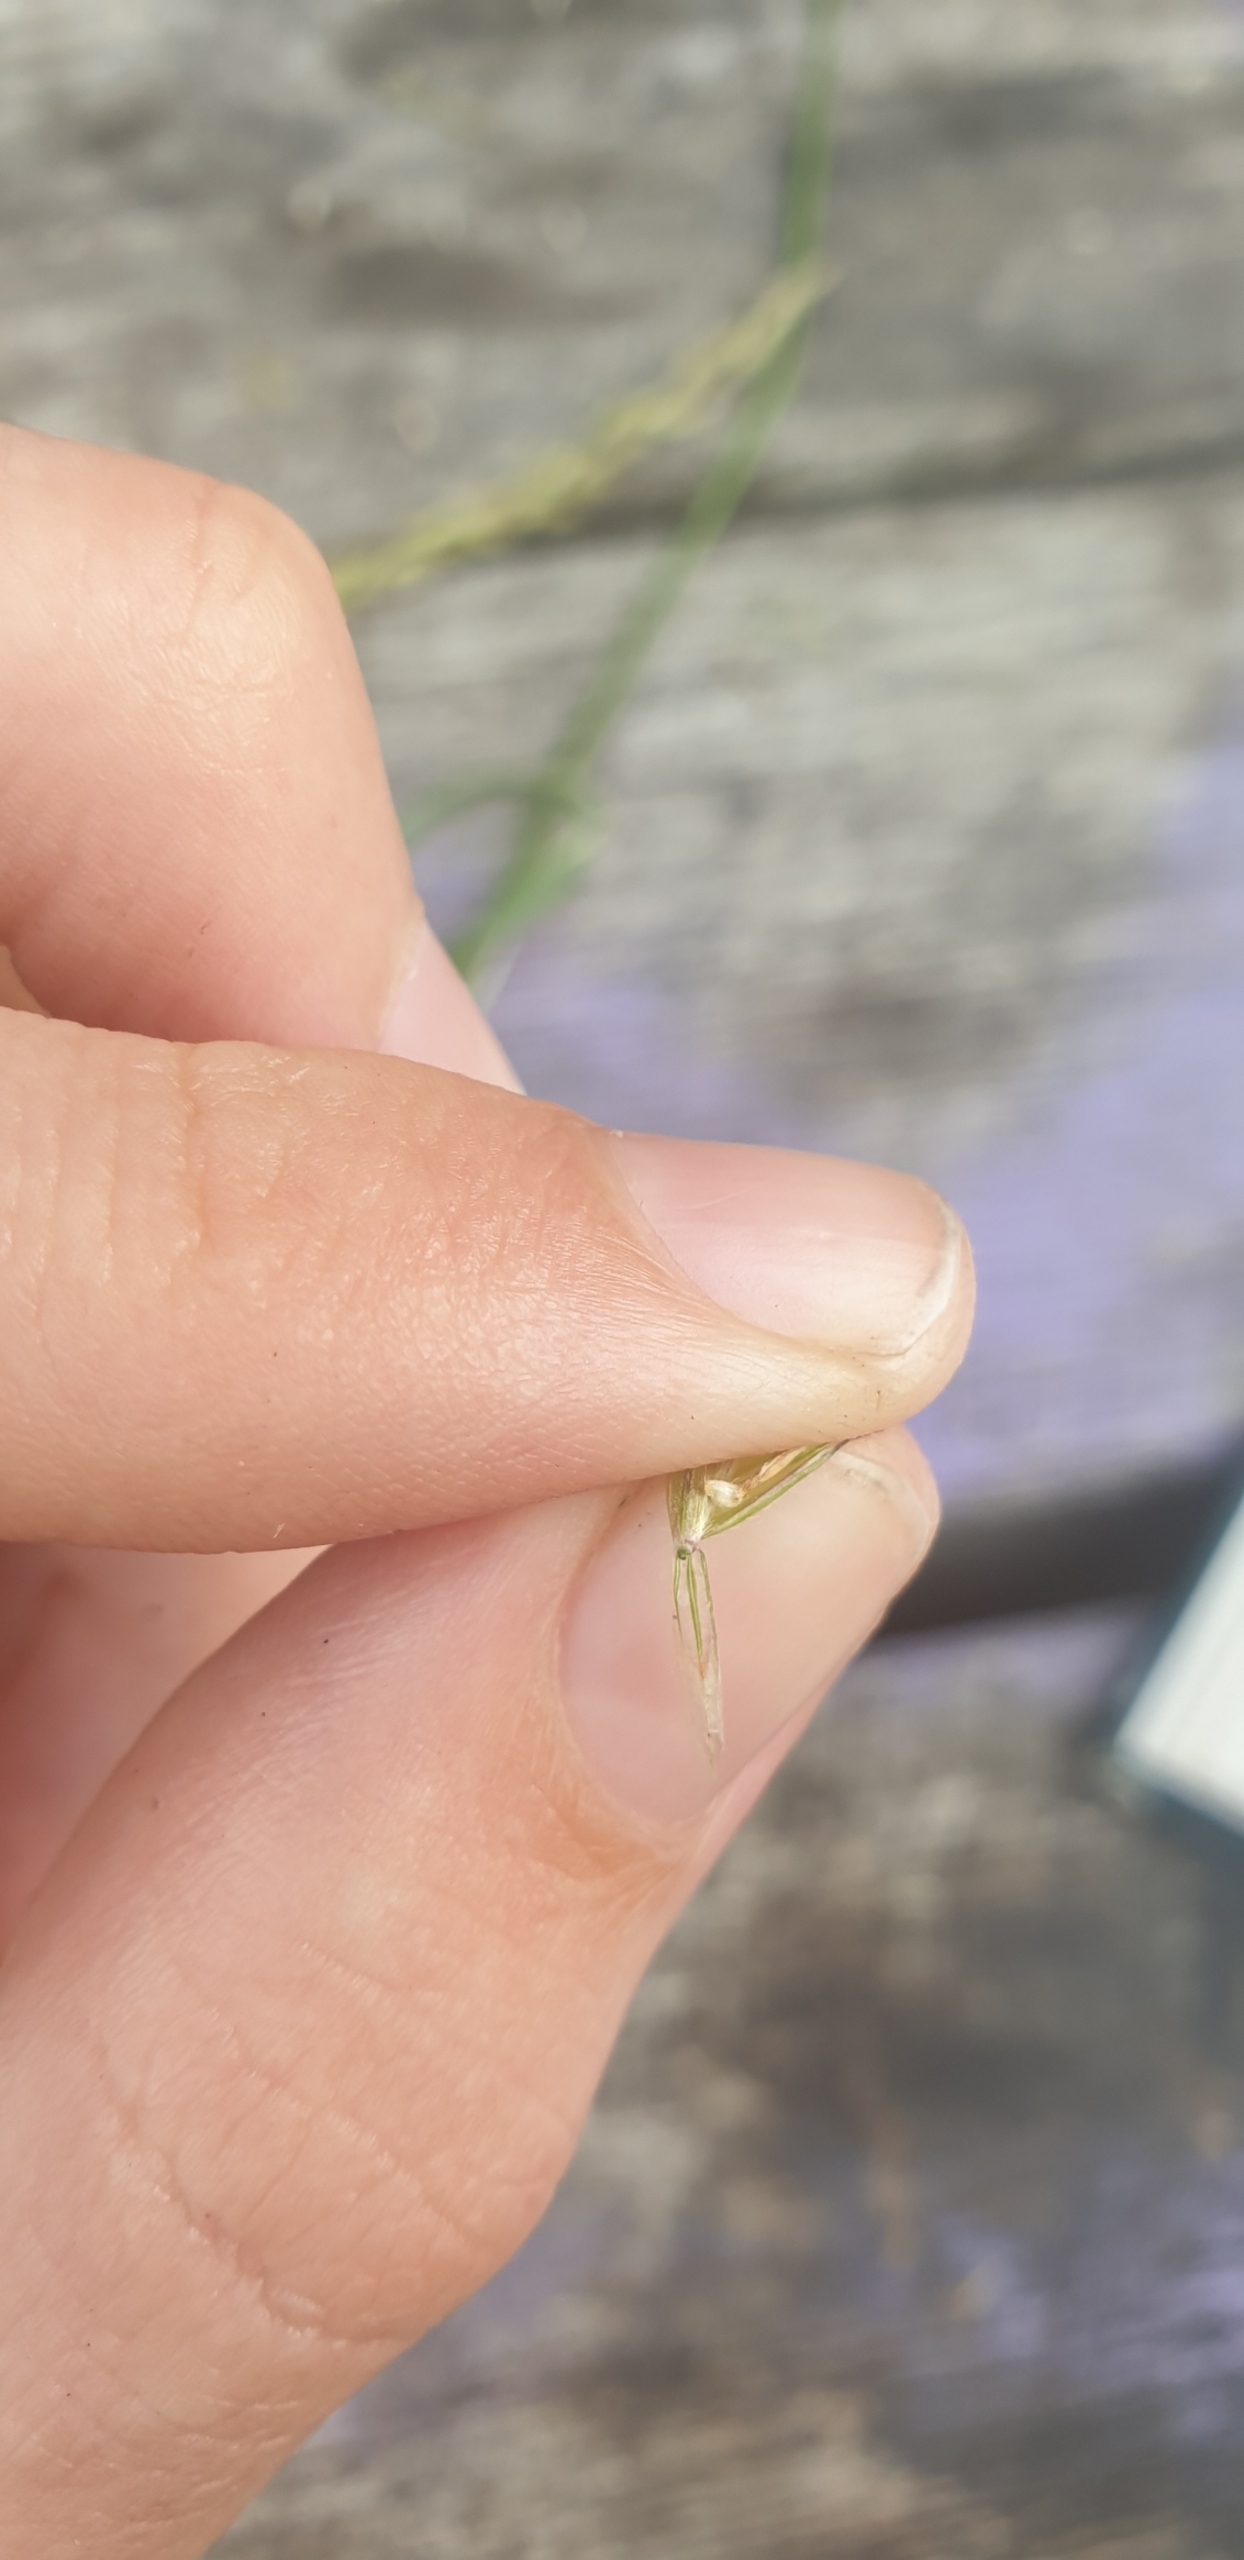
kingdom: Plantae
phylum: Tracheophyta
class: Liliopsida
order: Poales
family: Poaceae
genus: Arrhenatherum
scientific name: Arrhenatherum elatius
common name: Draphavre
